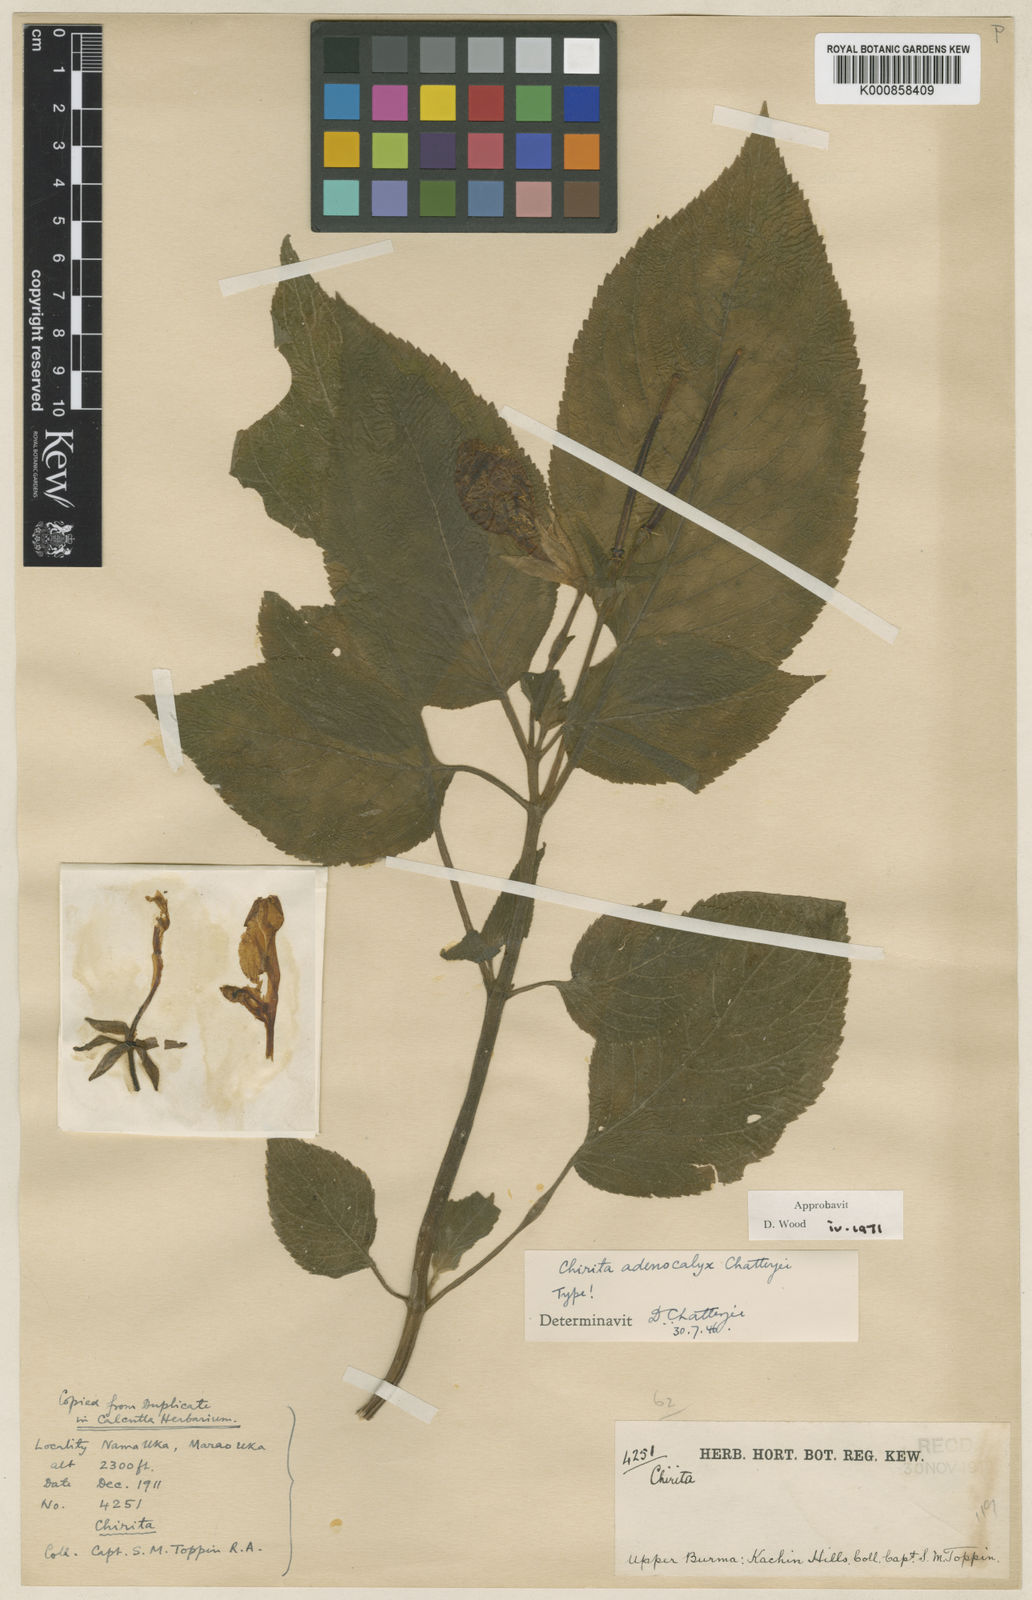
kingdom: Plantae
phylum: Tracheophyta
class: Magnoliopsida
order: Lamiales
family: Gesneriaceae
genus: Henckelia
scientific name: Henckelia adenocalyx
